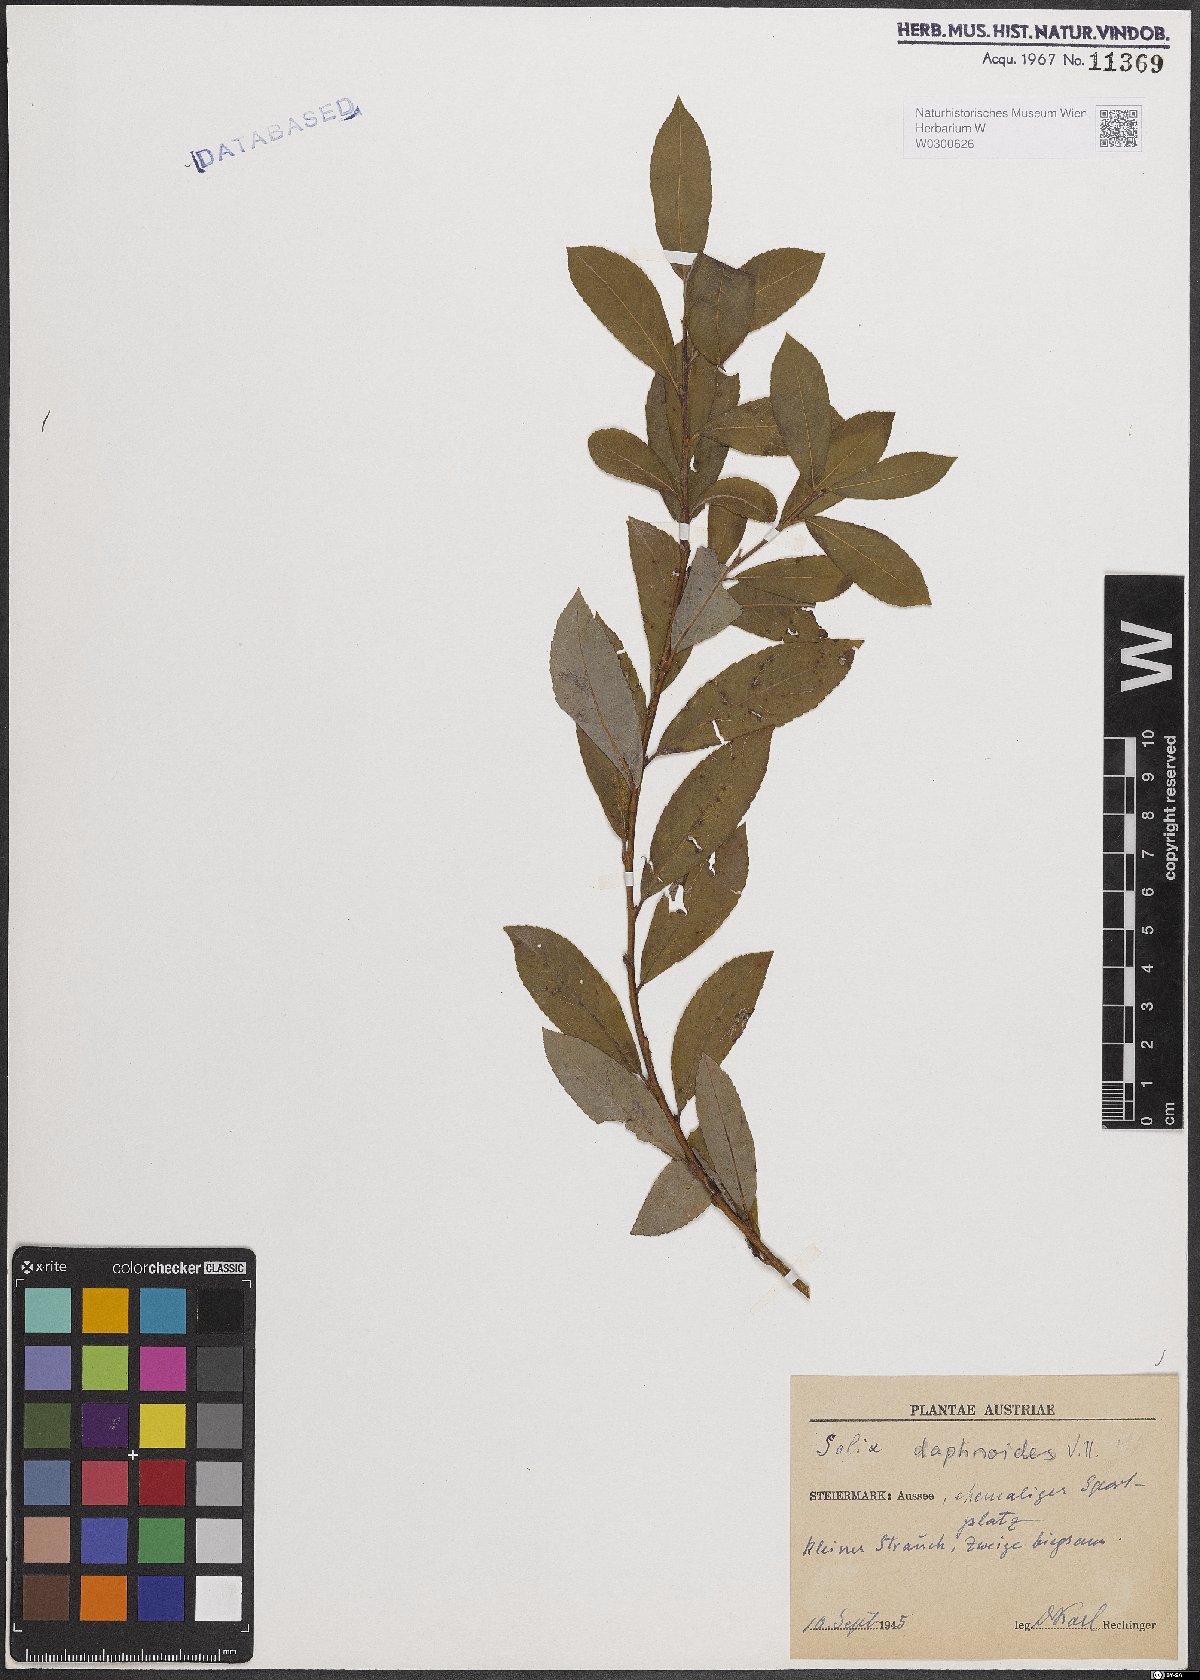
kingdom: Plantae
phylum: Tracheophyta
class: Magnoliopsida
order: Malpighiales
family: Salicaceae
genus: Salix
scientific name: Salix daphnoides
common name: European violet-willow
